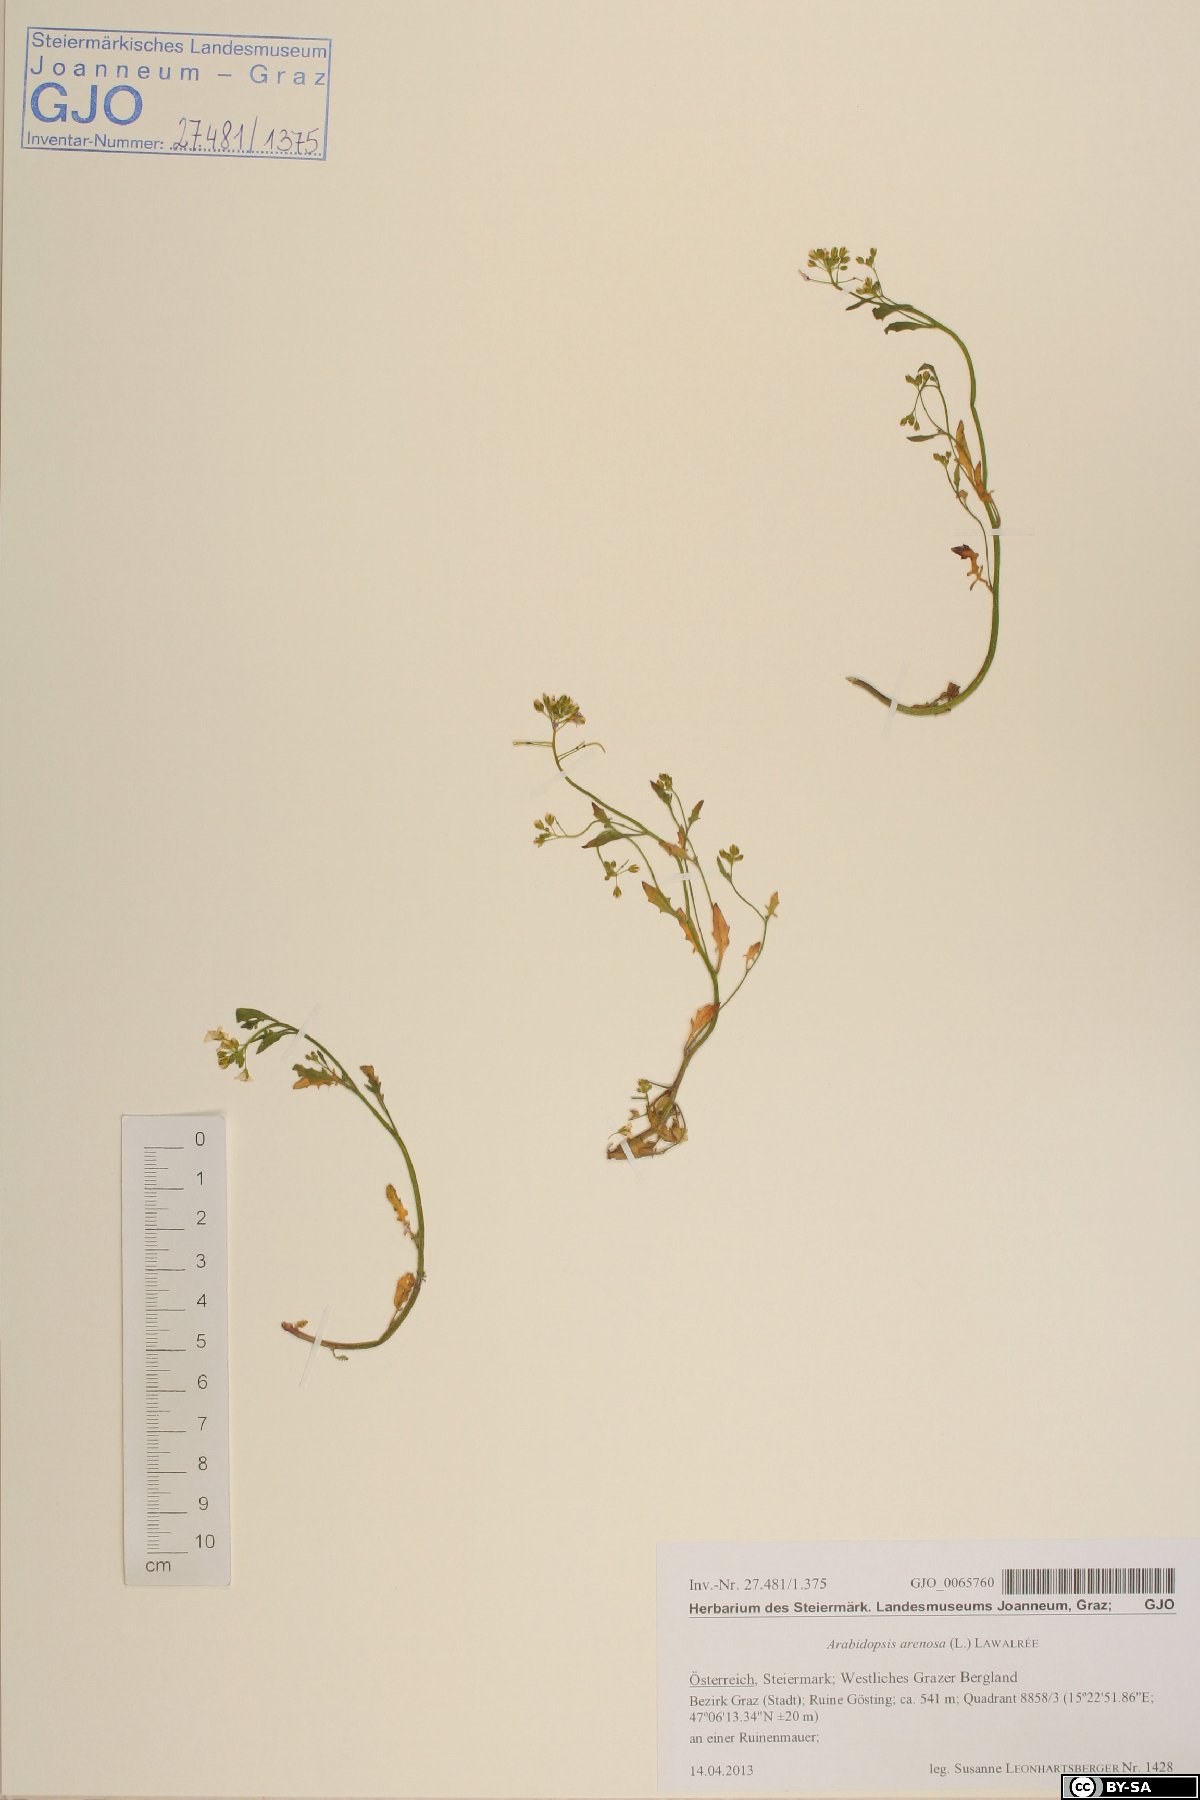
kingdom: Plantae
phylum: Tracheophyta
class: Magnoliopsida
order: Brassicales
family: Brassicaceae
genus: Arabidopsis
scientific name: Arabidopsis arenosa
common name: Sand rock-cress
